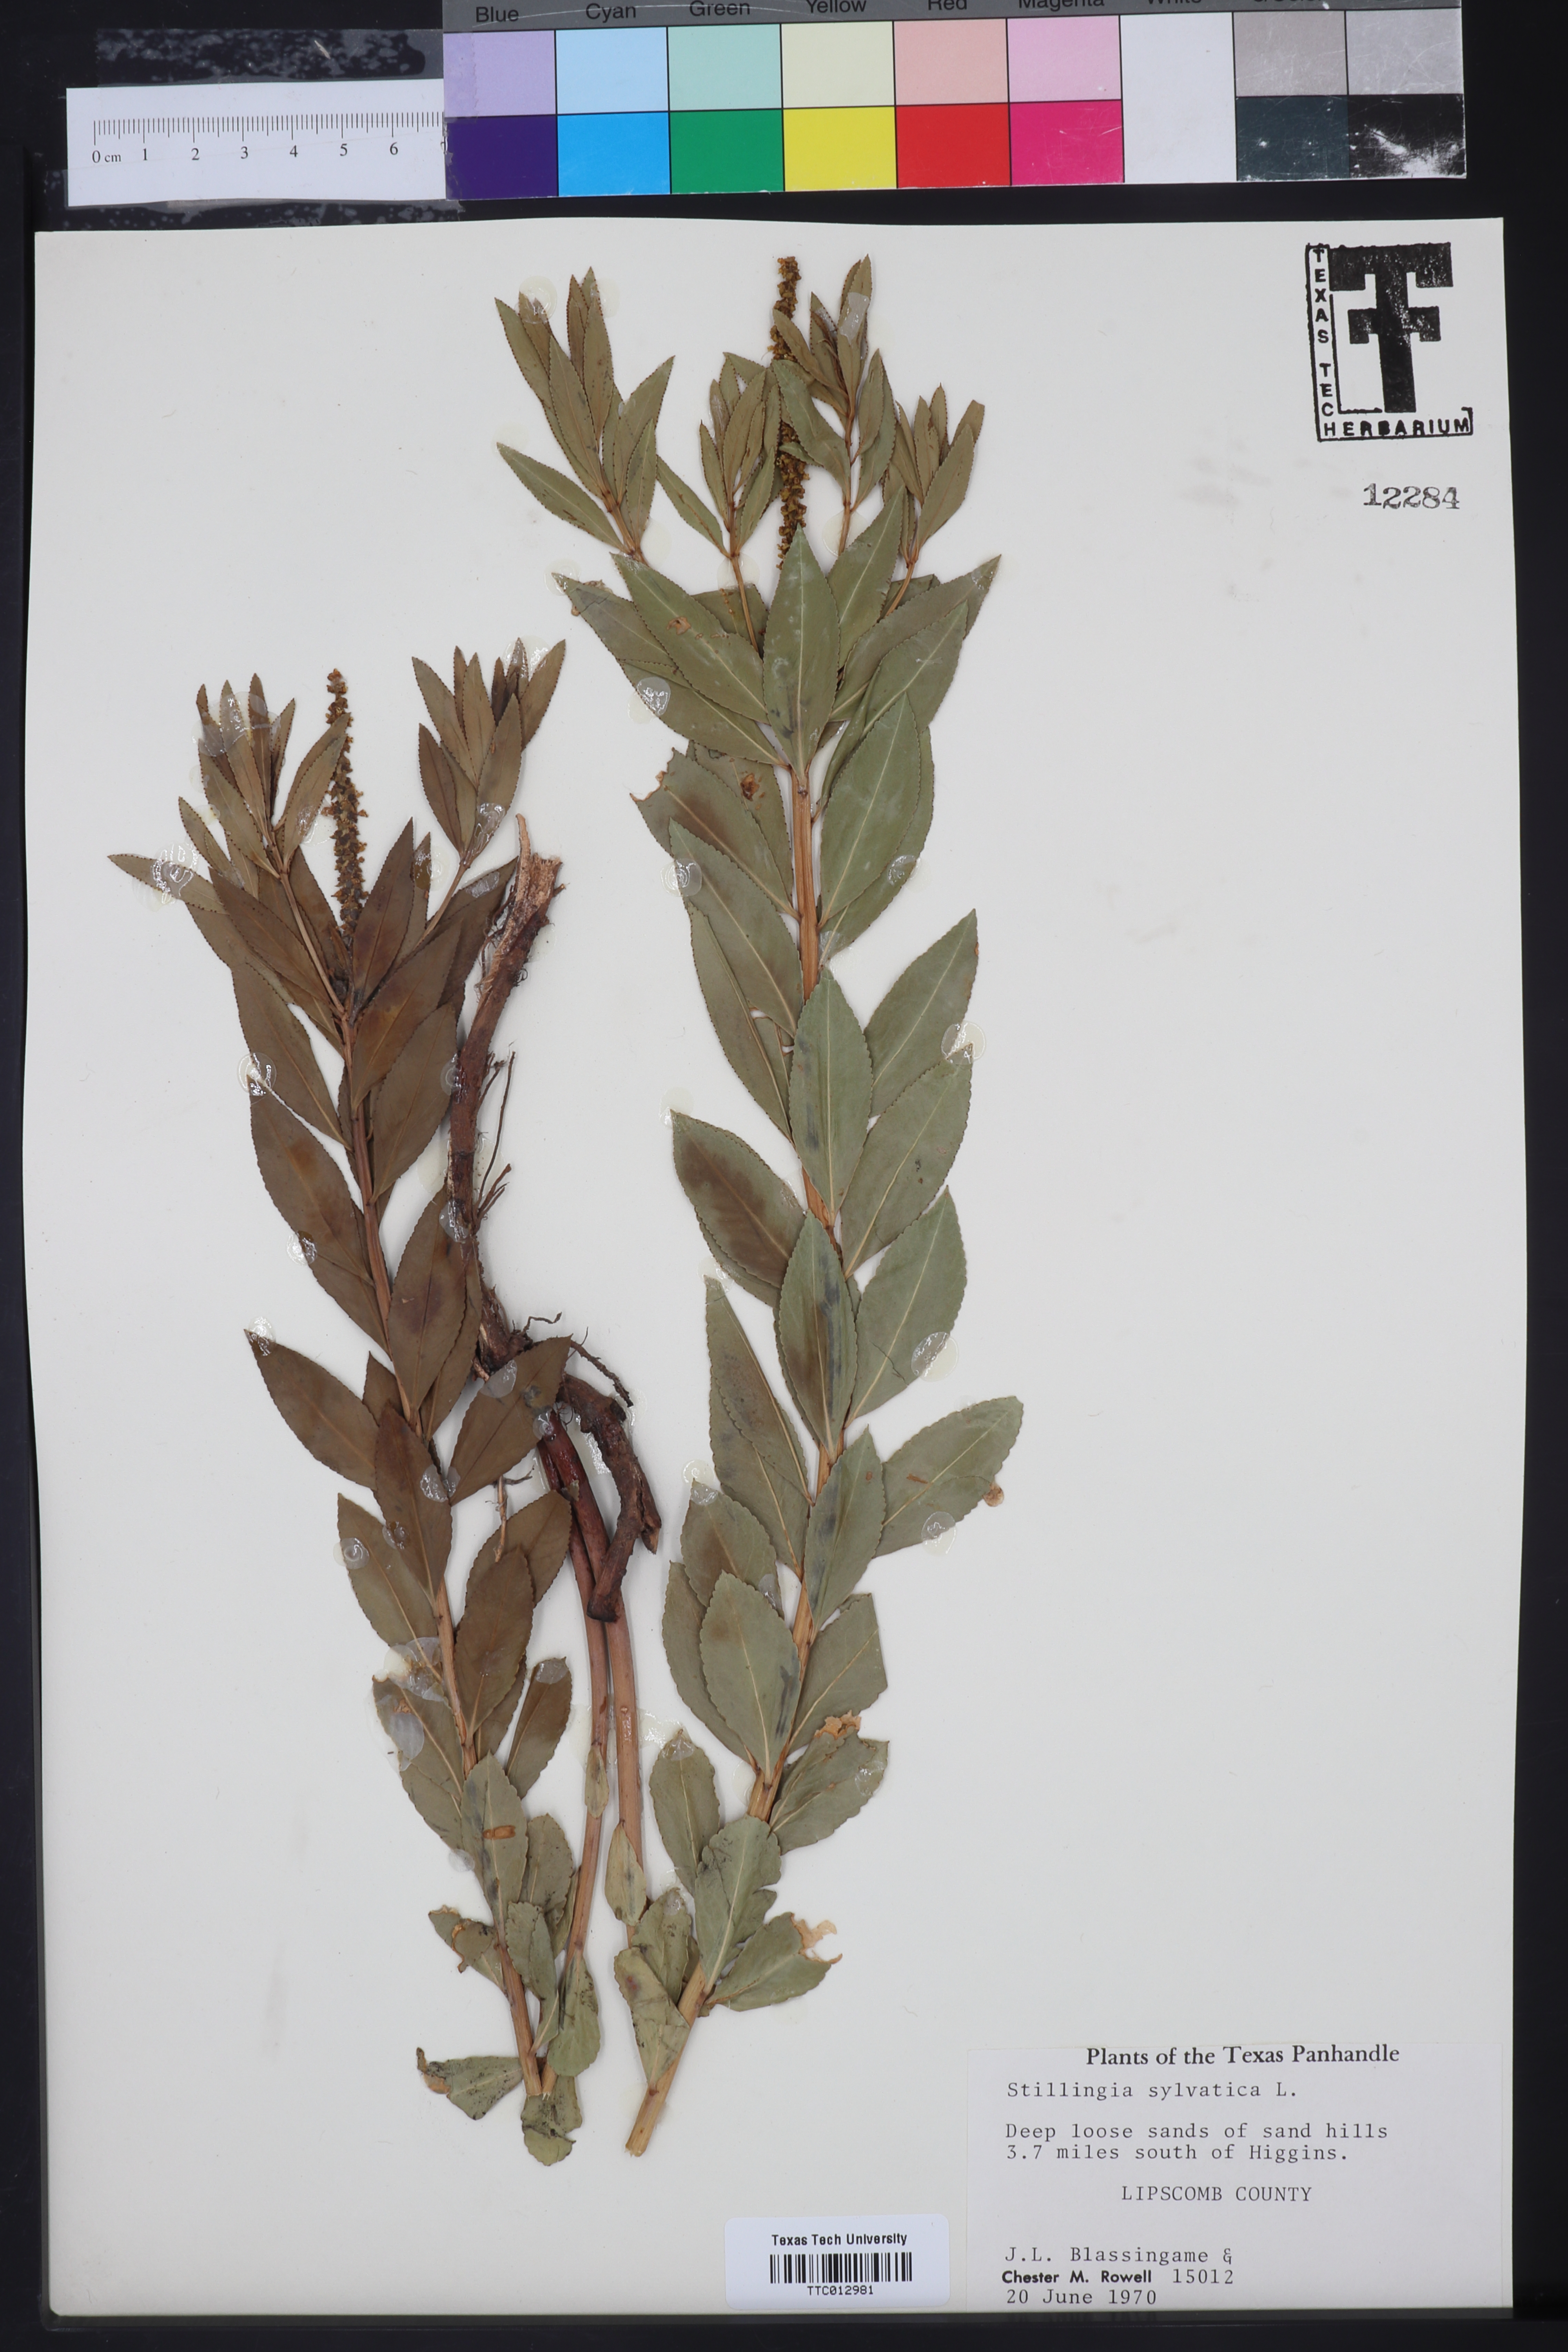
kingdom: Plantae
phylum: Tracheophyta
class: Magnoliopsida
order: Malpighiales
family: Euphorbiaceae
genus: Stillingia
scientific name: Stillingia sylvatica
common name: Queen's-delight
